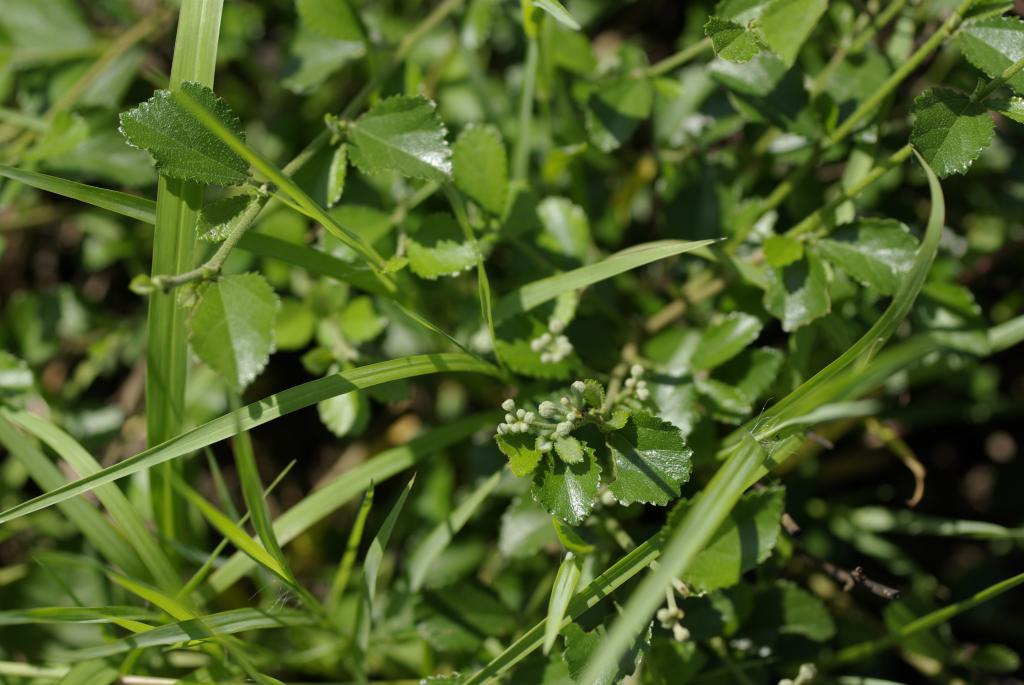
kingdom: Plantae
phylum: Tracheophyta
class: Magnoliopsida
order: Malvales
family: Malvaceae
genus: Grewia
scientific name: Grewia rhombifolia
